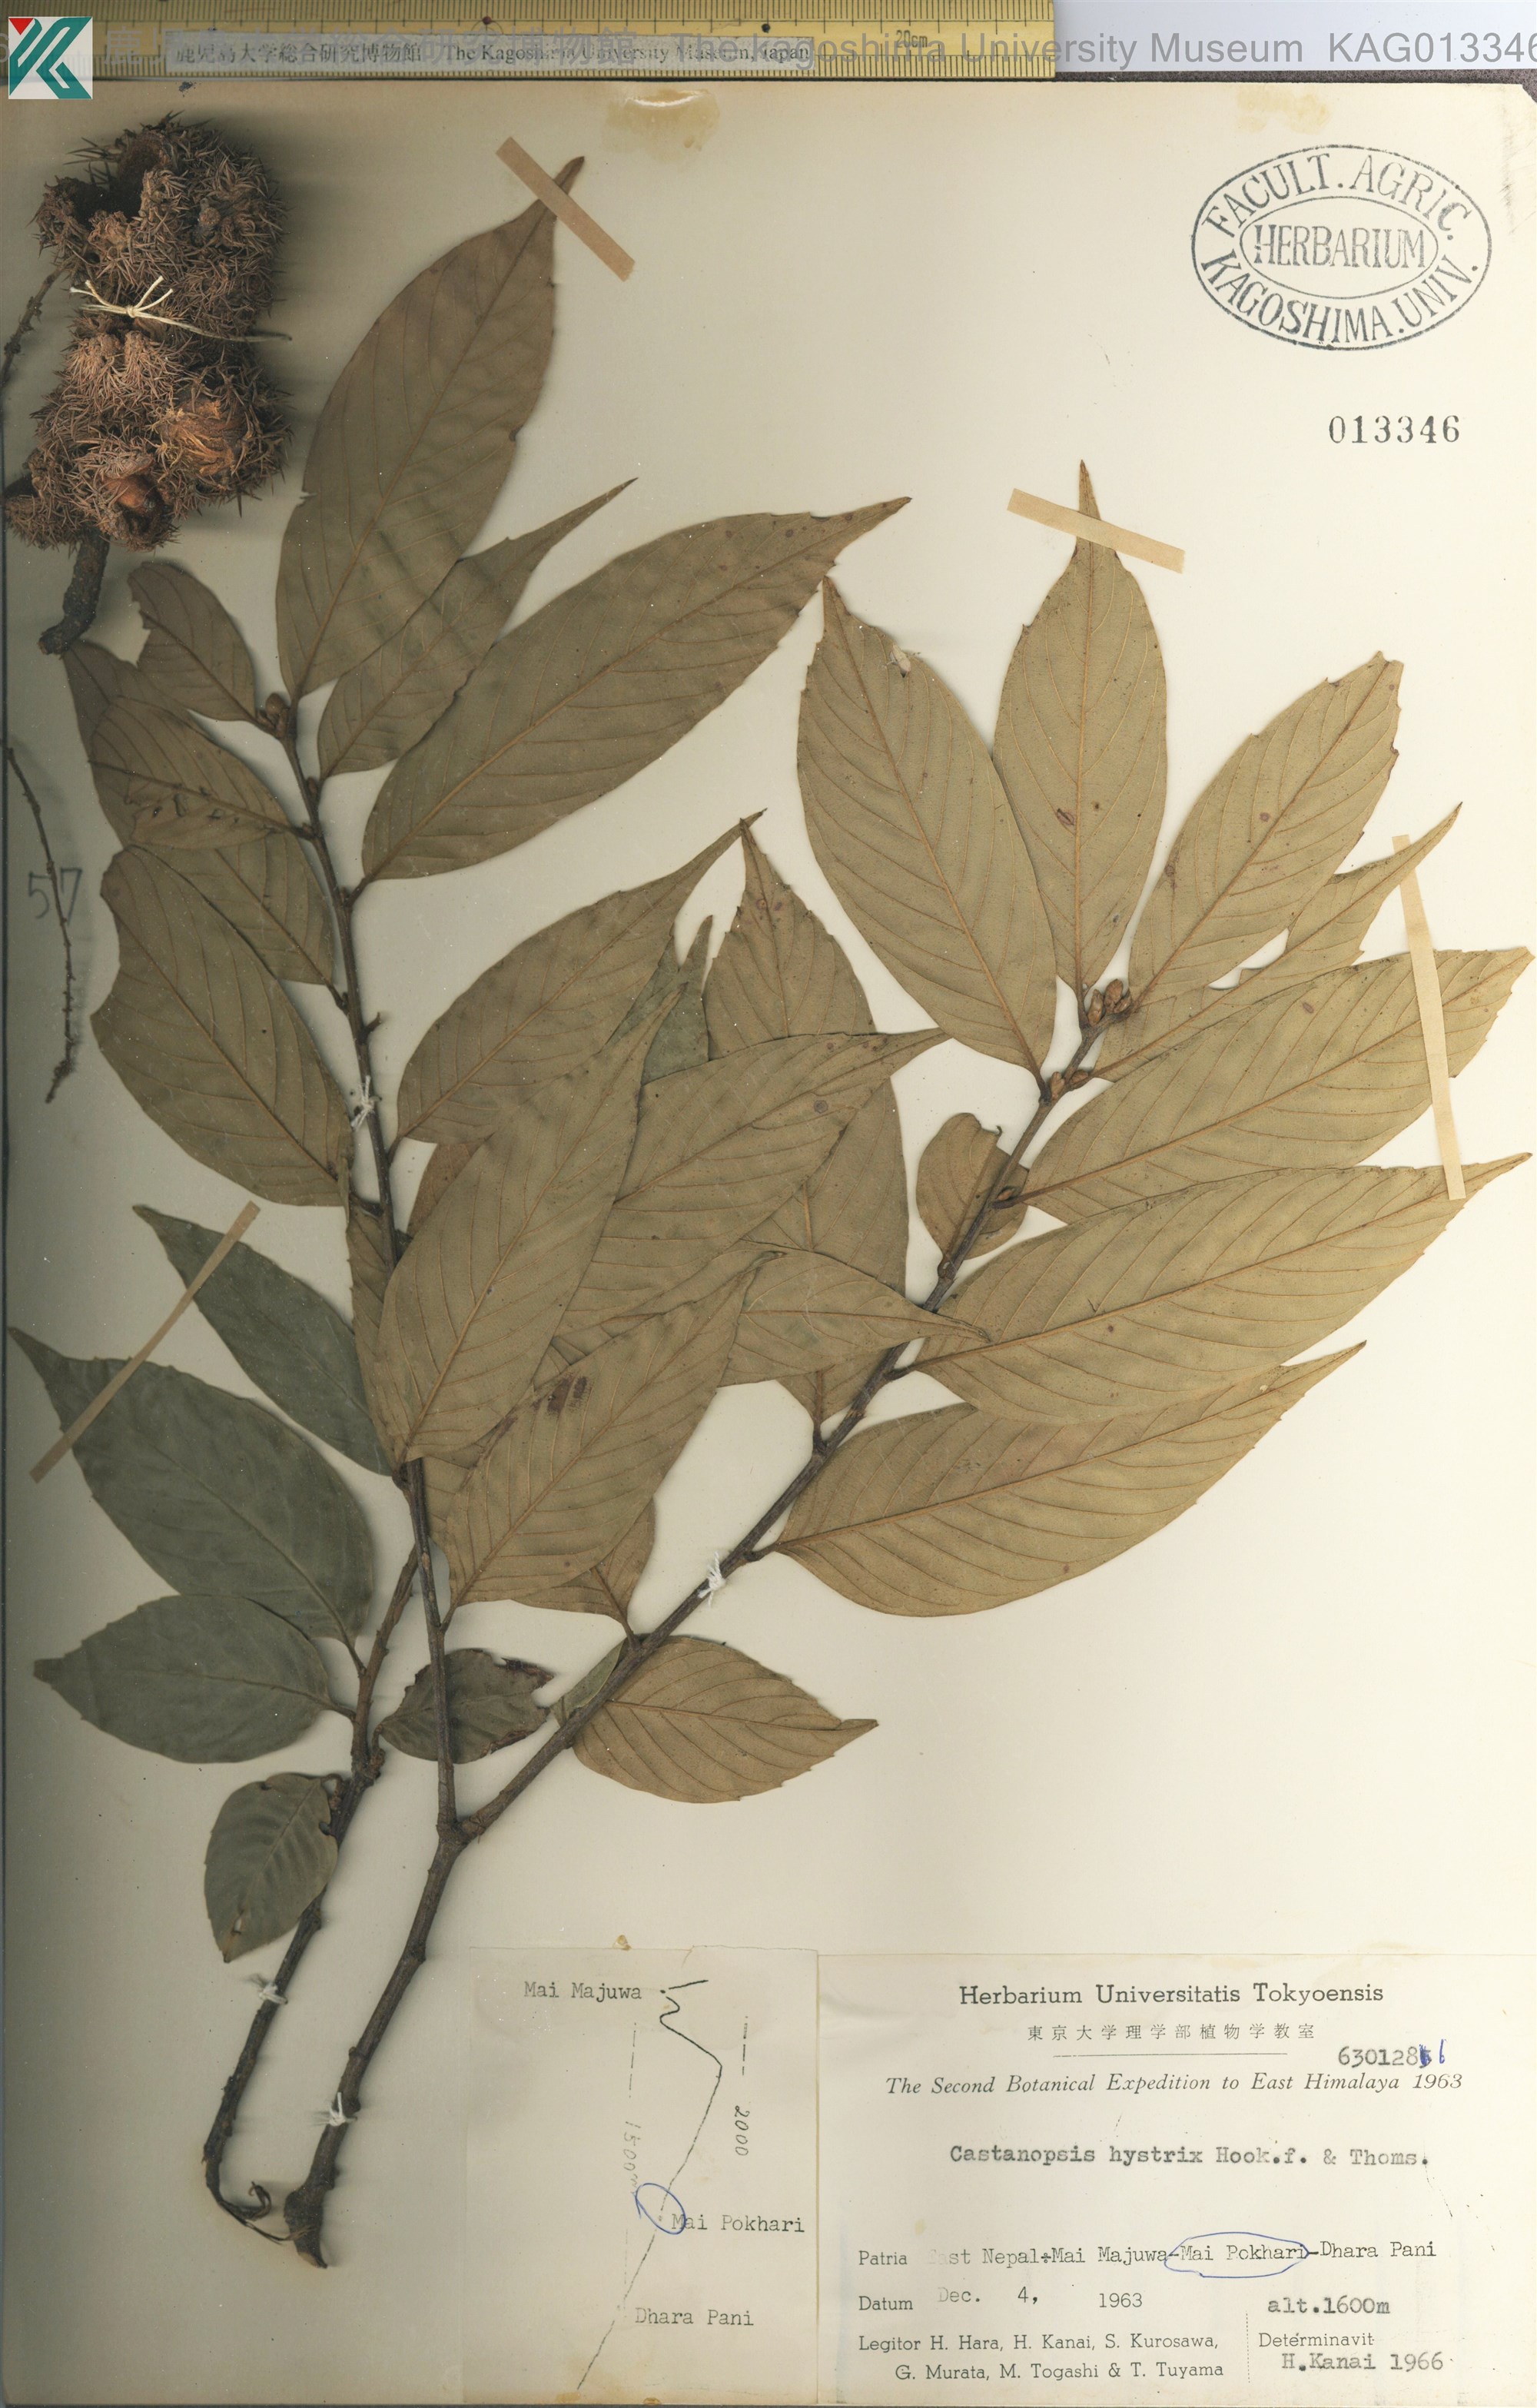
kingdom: Plantae
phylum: Tracheophyta
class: Magnoliopsida
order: Fagales
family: Fagaceae
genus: Castanopsis
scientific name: Castanopsis hystrix
